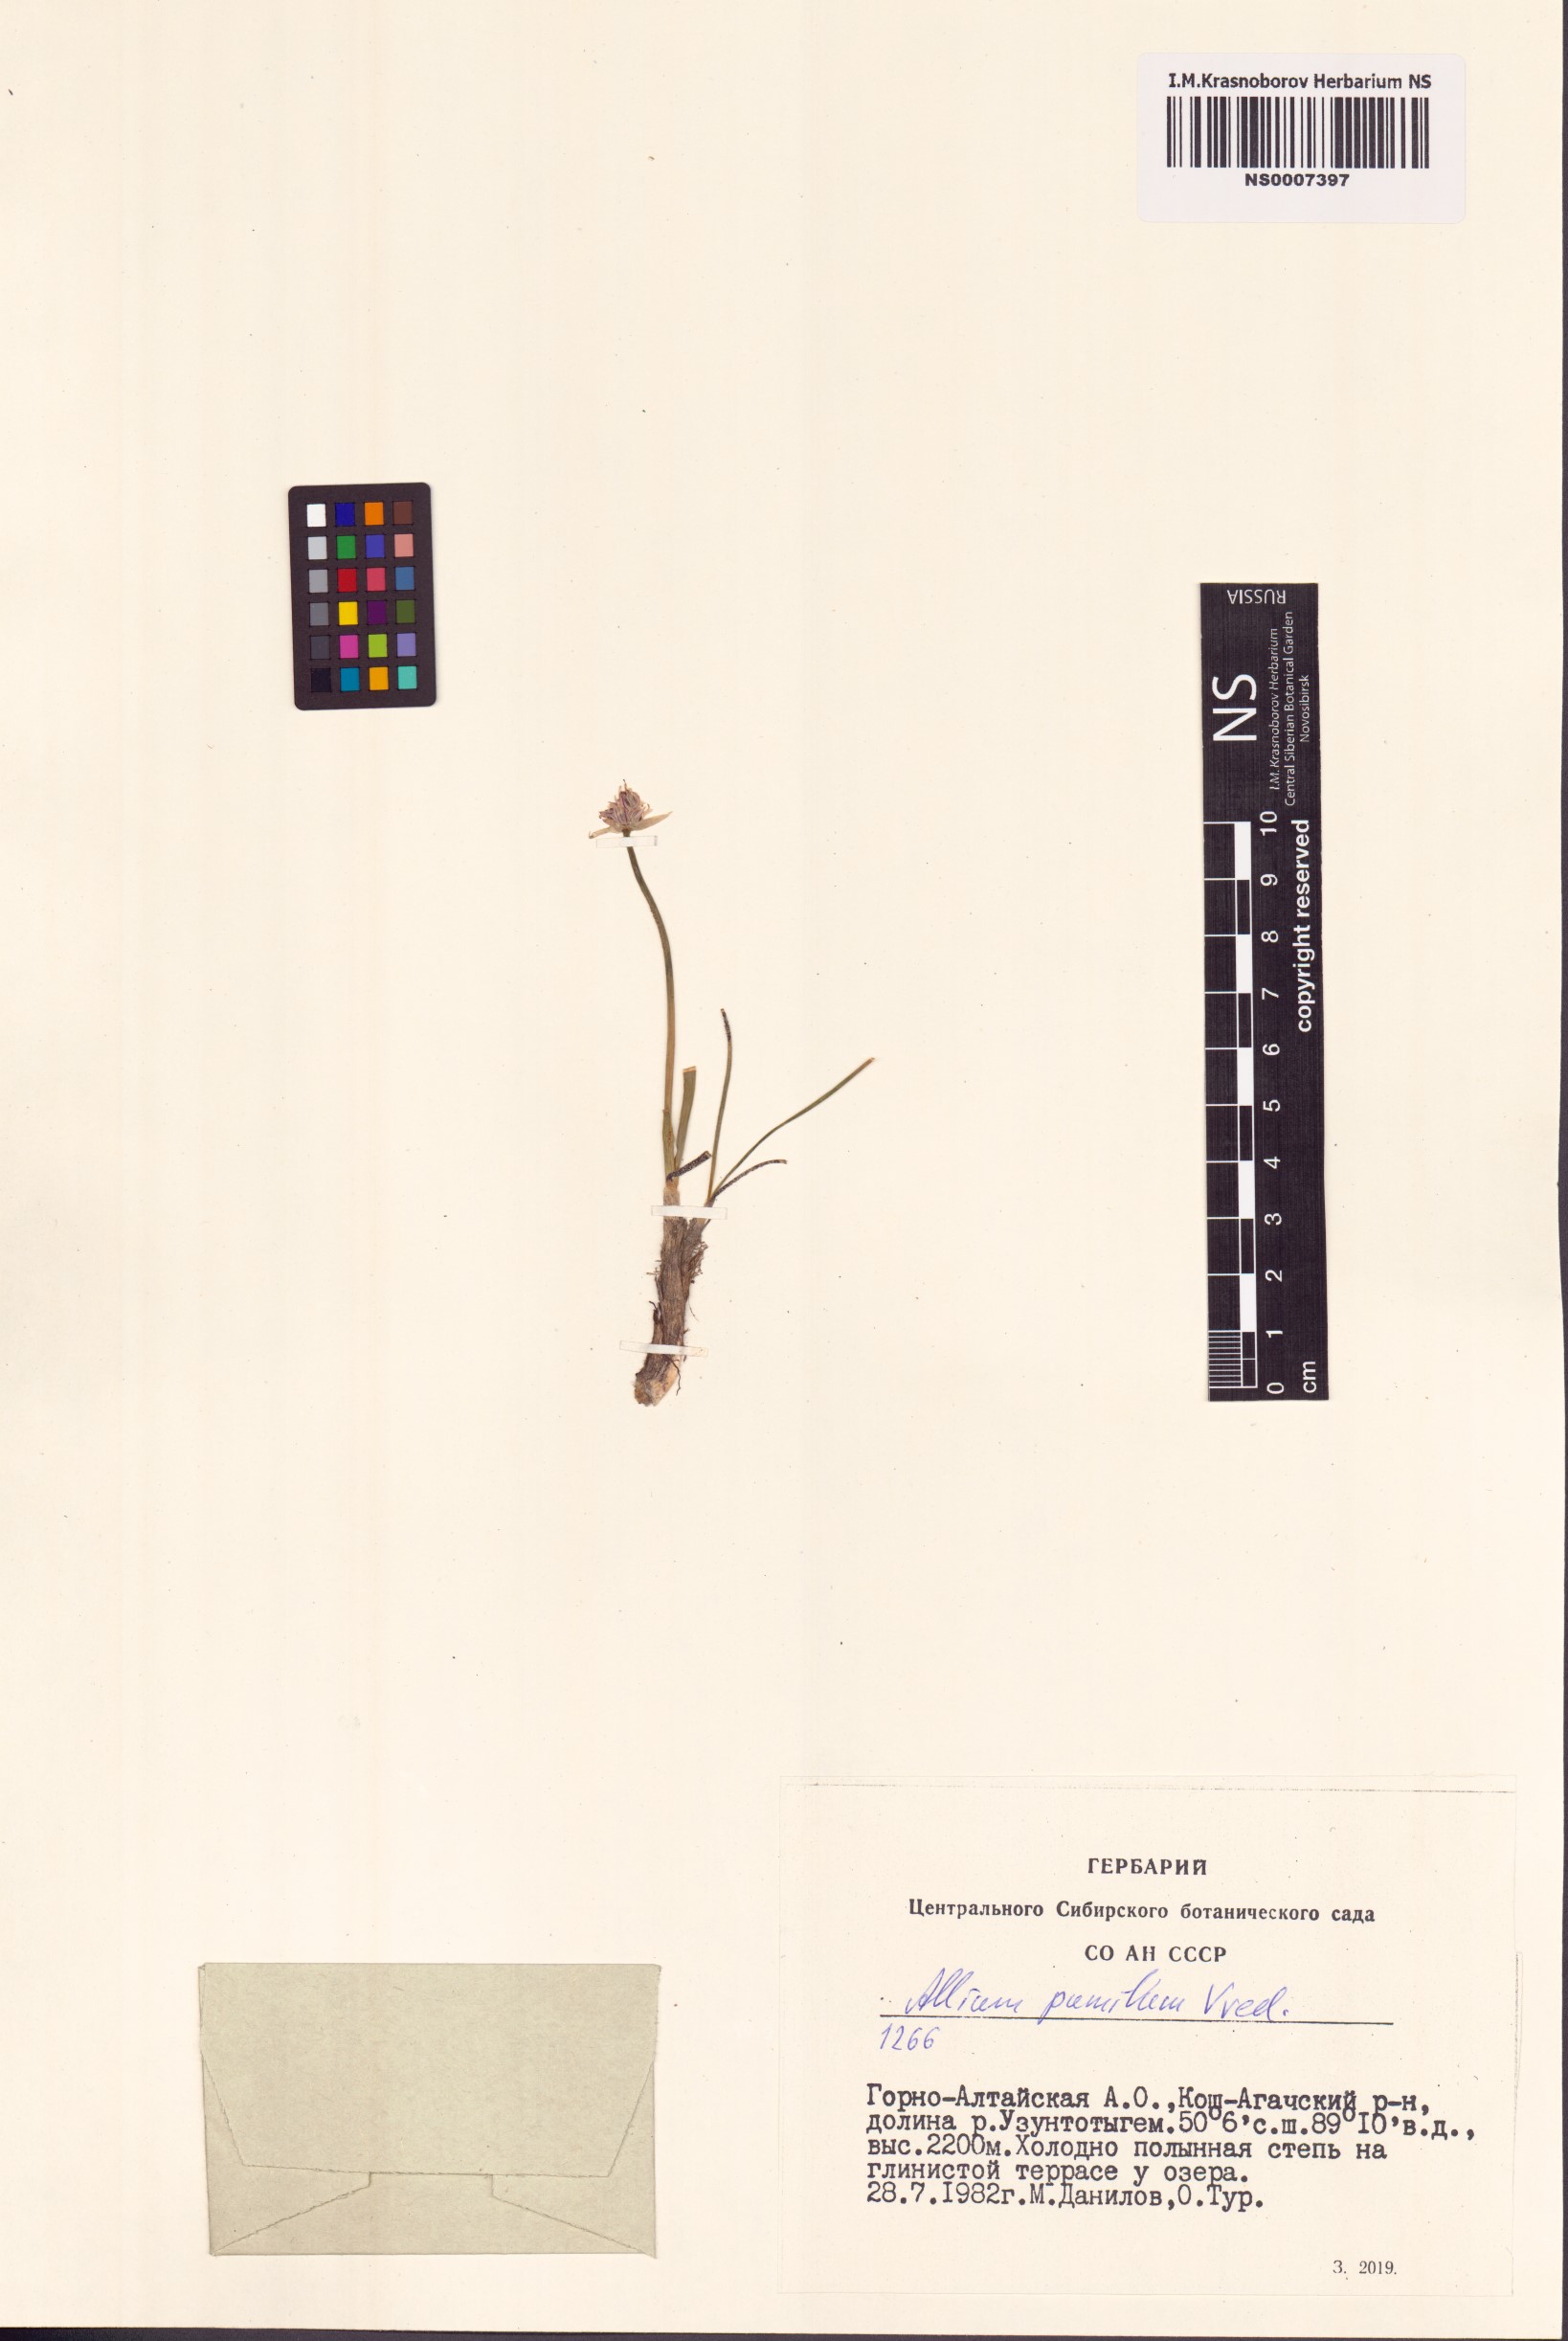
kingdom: Plantae
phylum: Tracheophyta
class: Liliopsida
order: Asparagales
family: Amaryllidaceae
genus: Allium
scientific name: Allium pumilum
